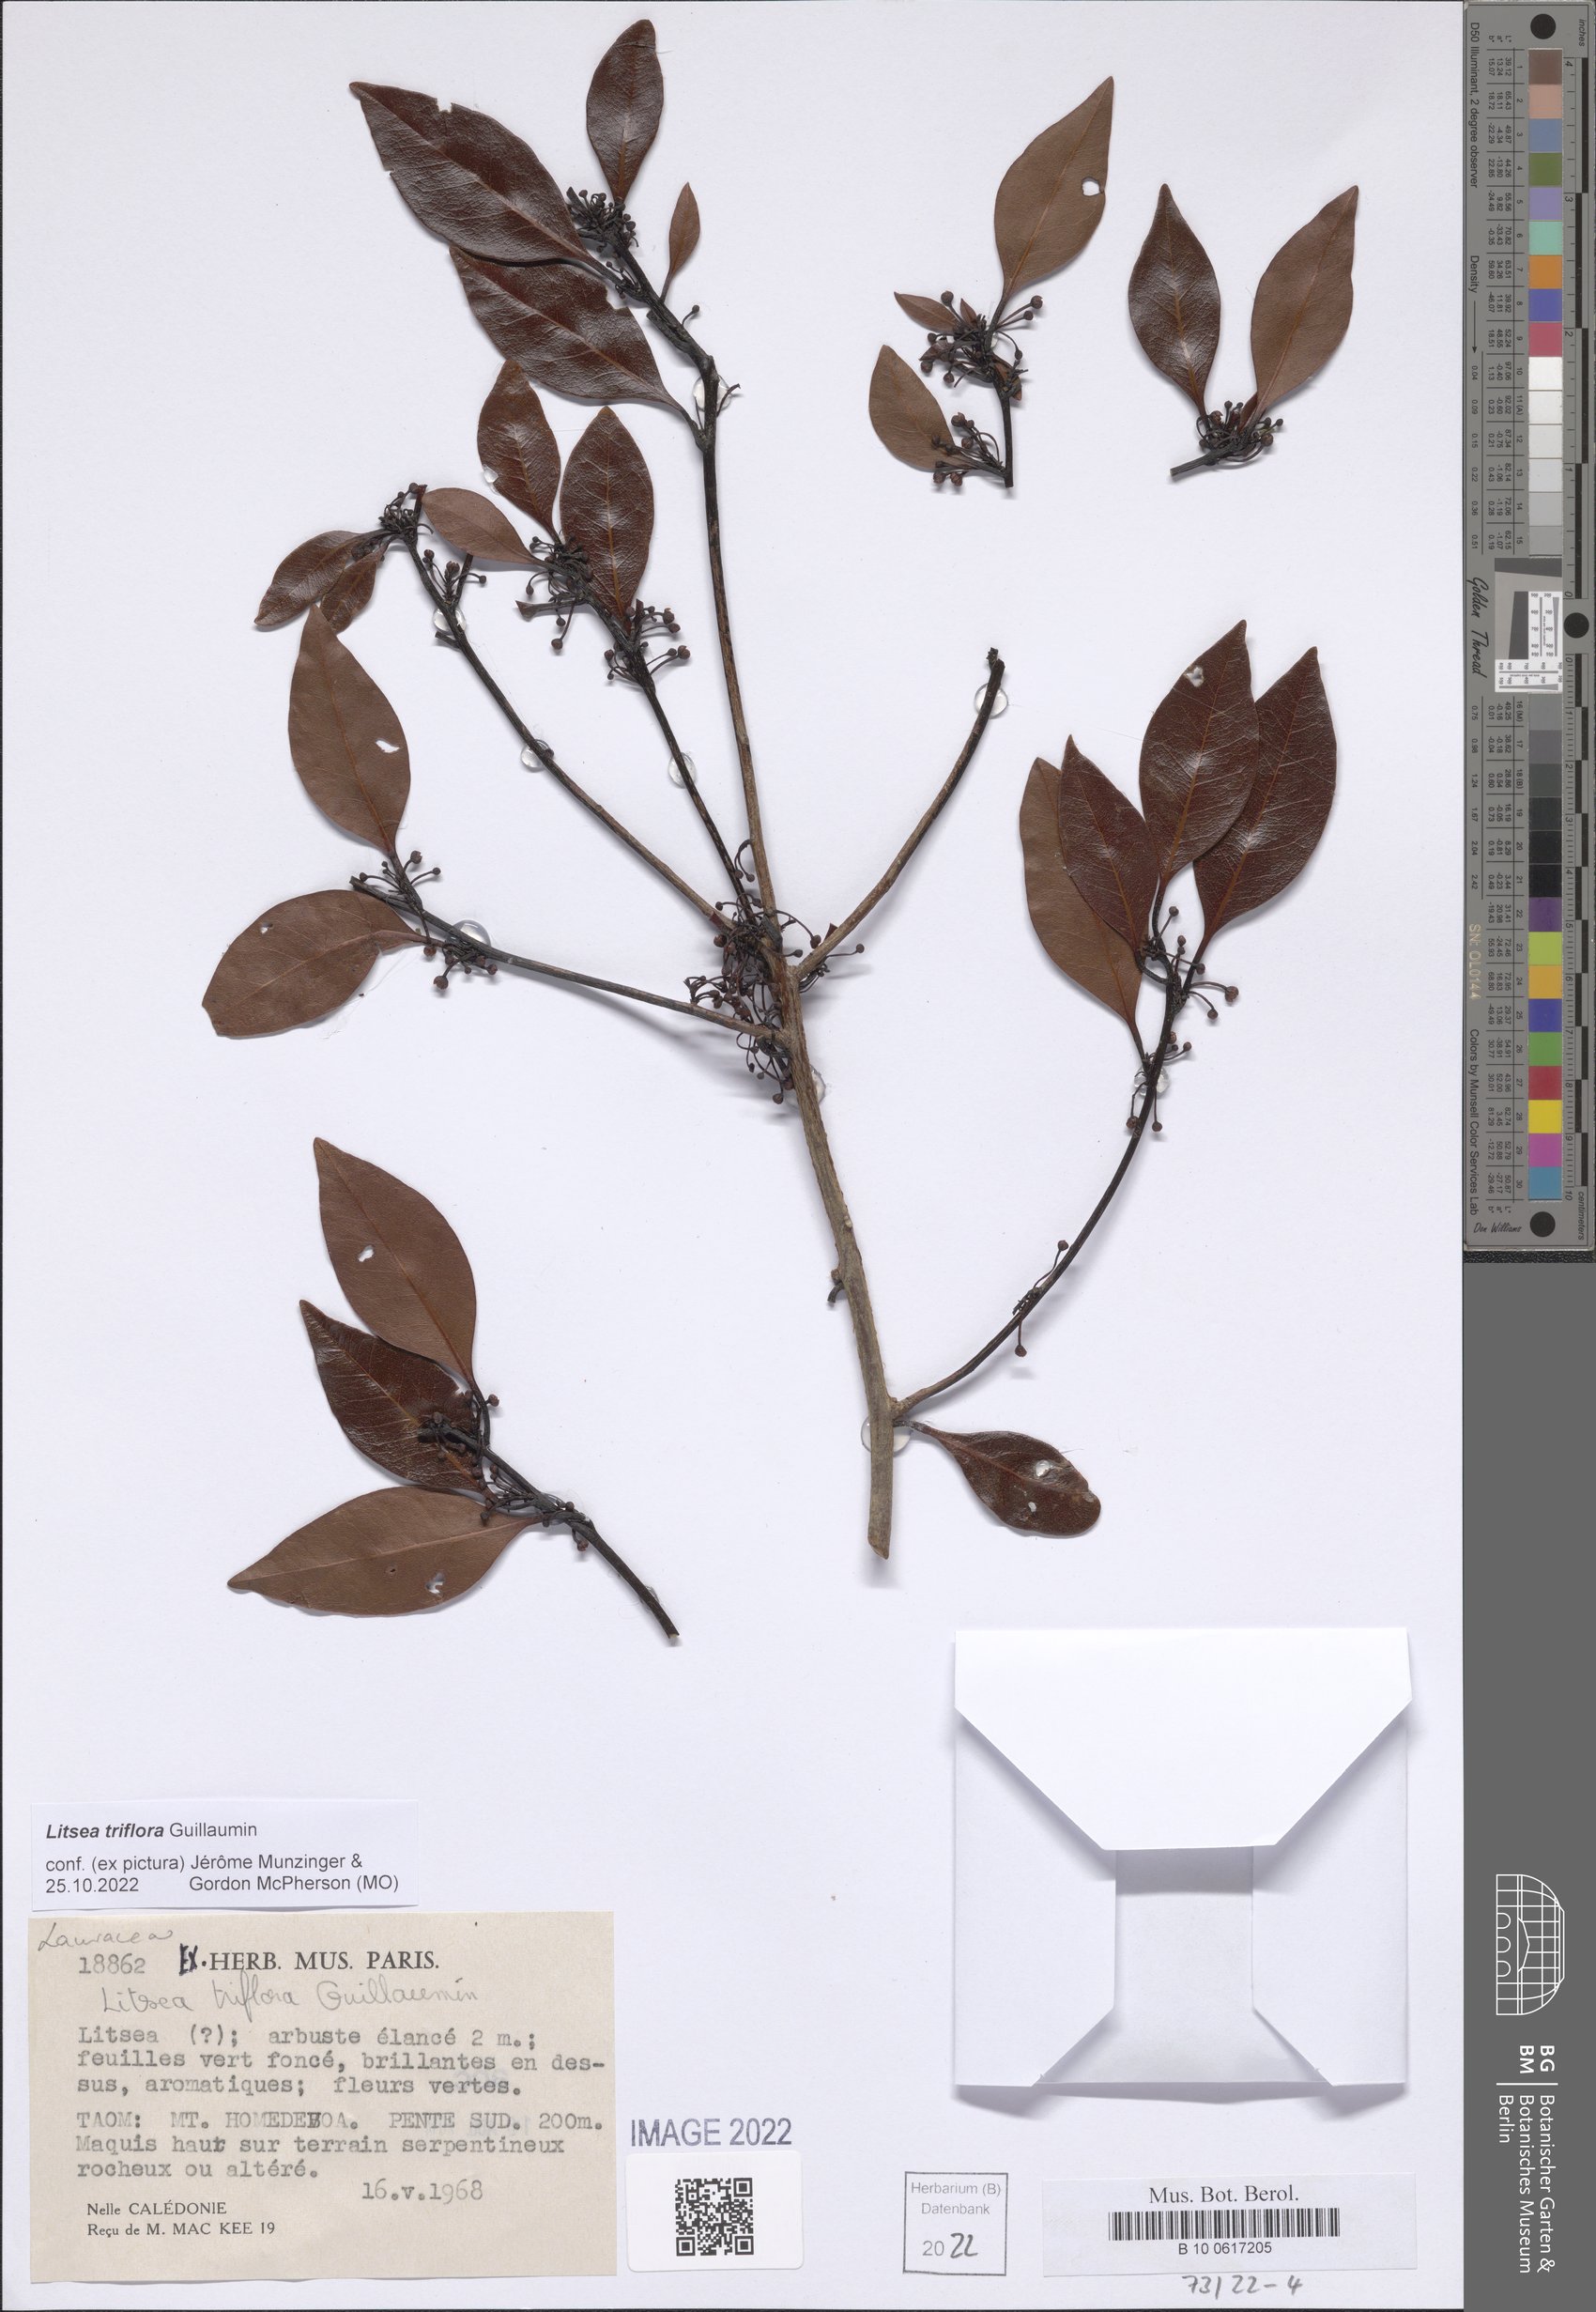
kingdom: Plantae
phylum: Tracheophyta
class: Magnoliopsida
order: Laurales
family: Lauraceae
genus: Litsea
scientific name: Litsea triflora
